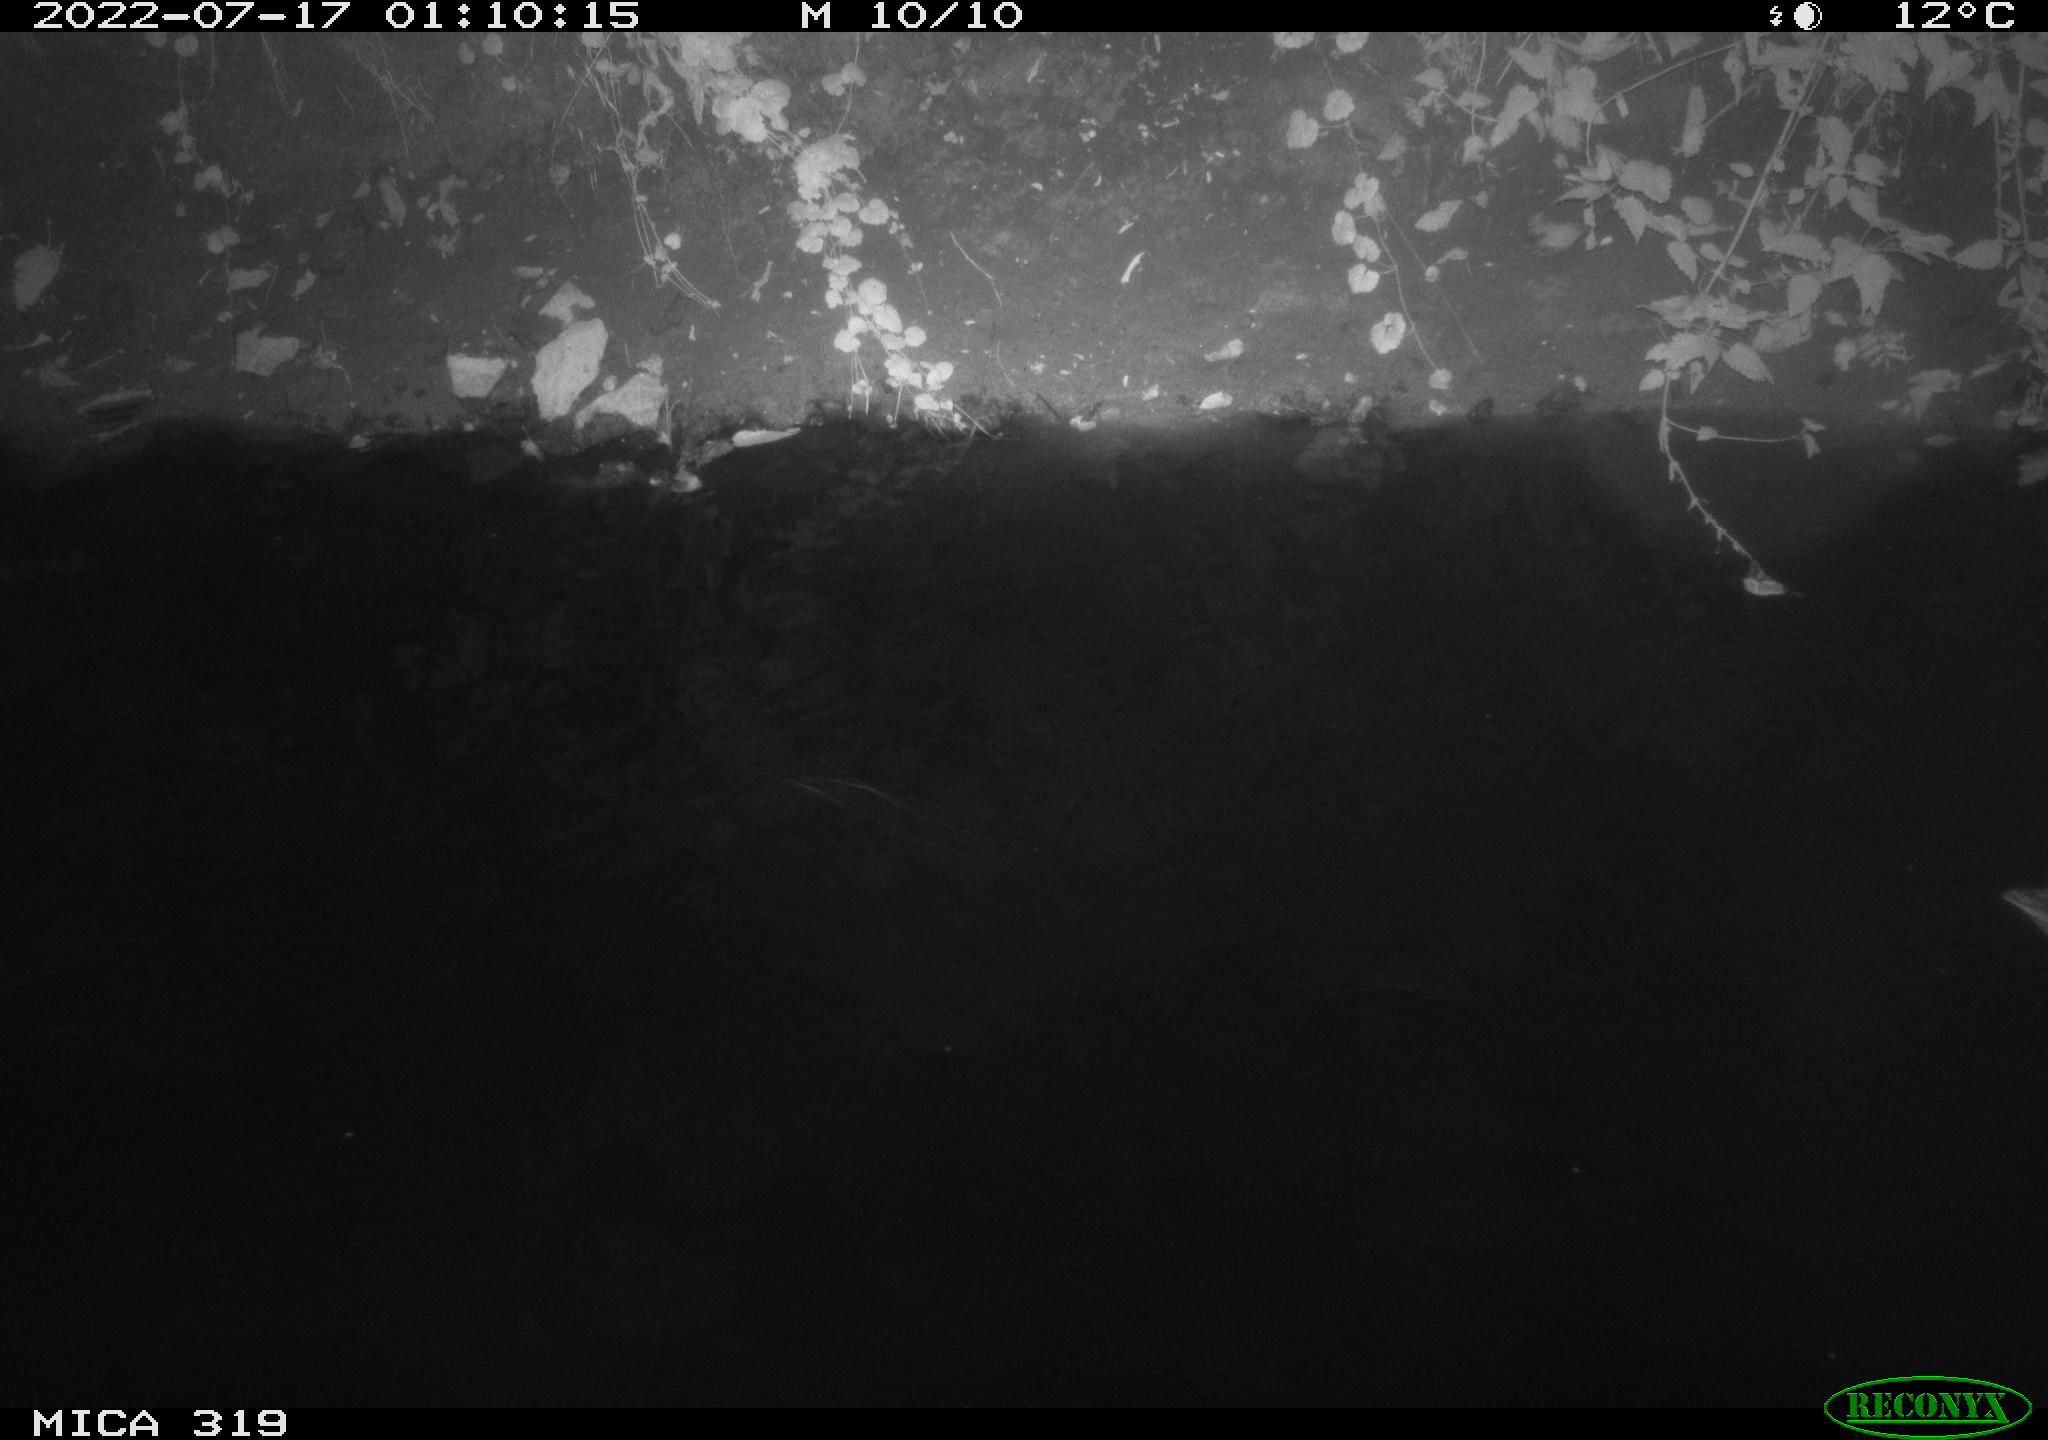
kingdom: Animalia
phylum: Chordata
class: Aves
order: Gruiformes
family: Rallidae
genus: Fulica
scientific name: Fulica atra
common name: Eurasian coot
